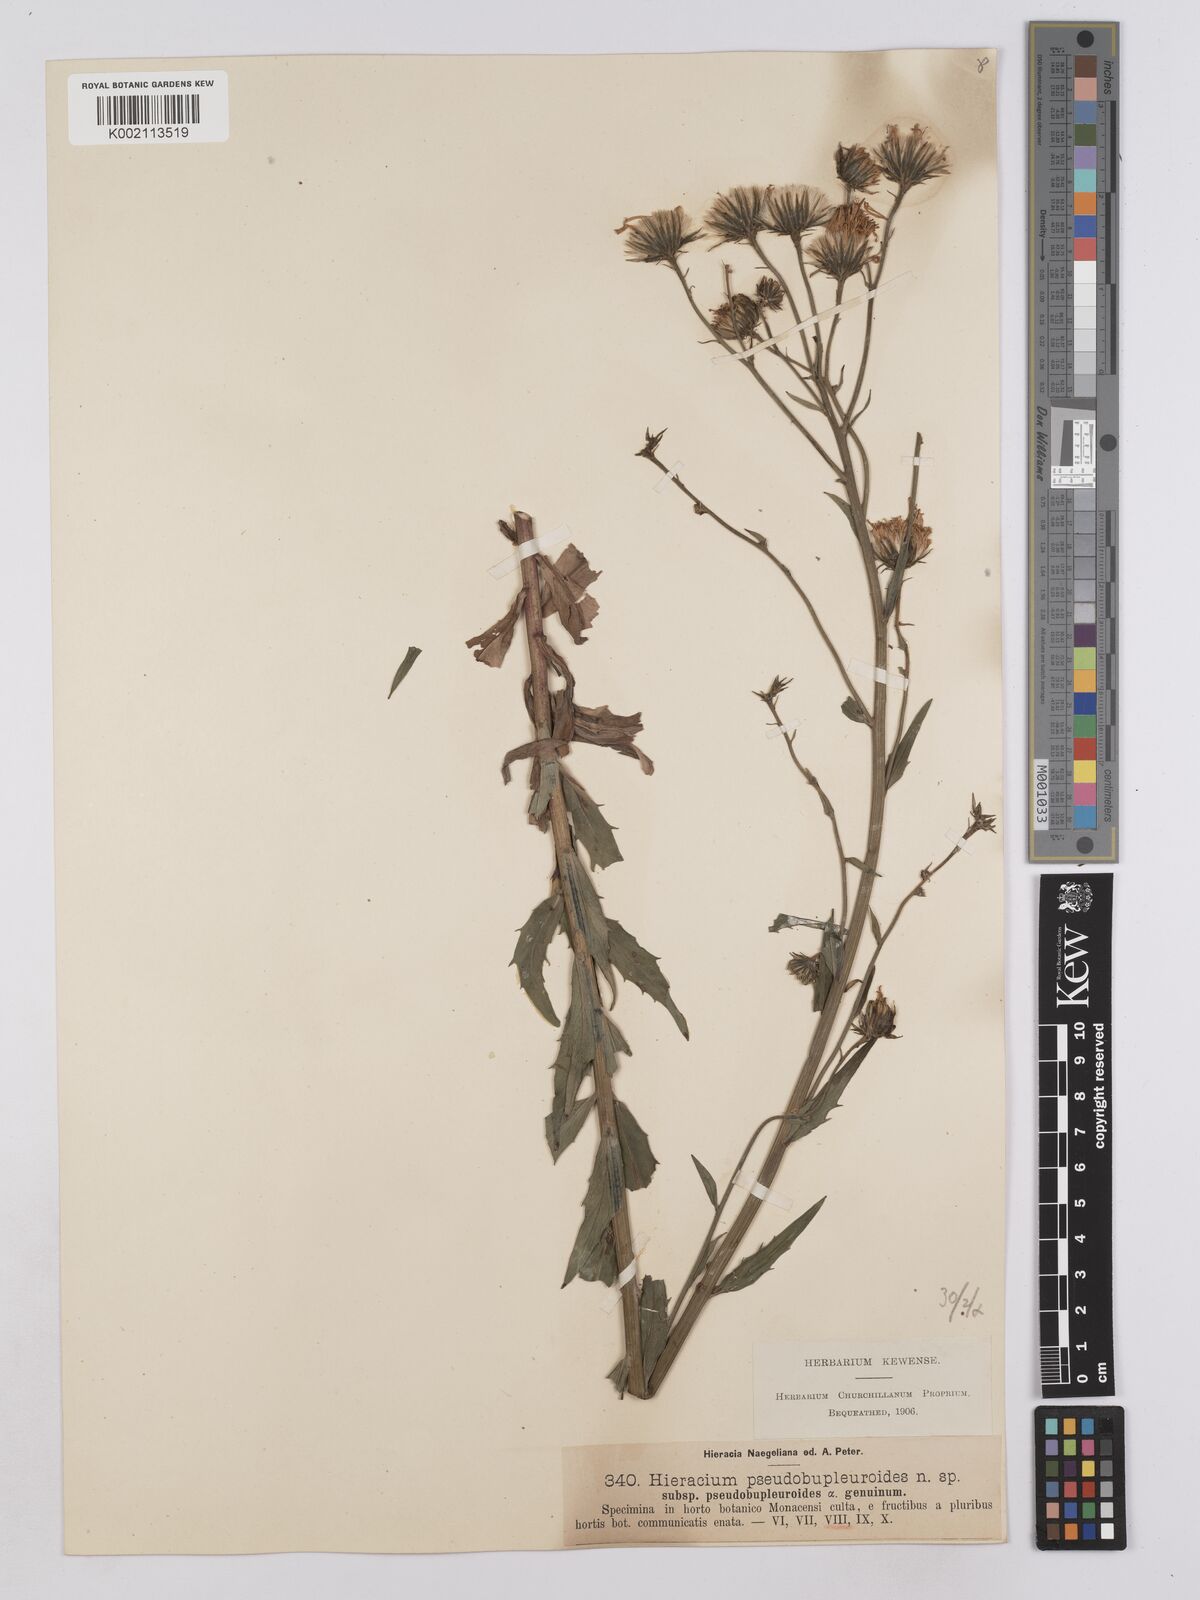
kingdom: Plantae
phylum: Tracheophyta
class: Magnoliopsida
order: Asterales
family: Asteraceae
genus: Hieracium
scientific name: Hieracium vindobonense
